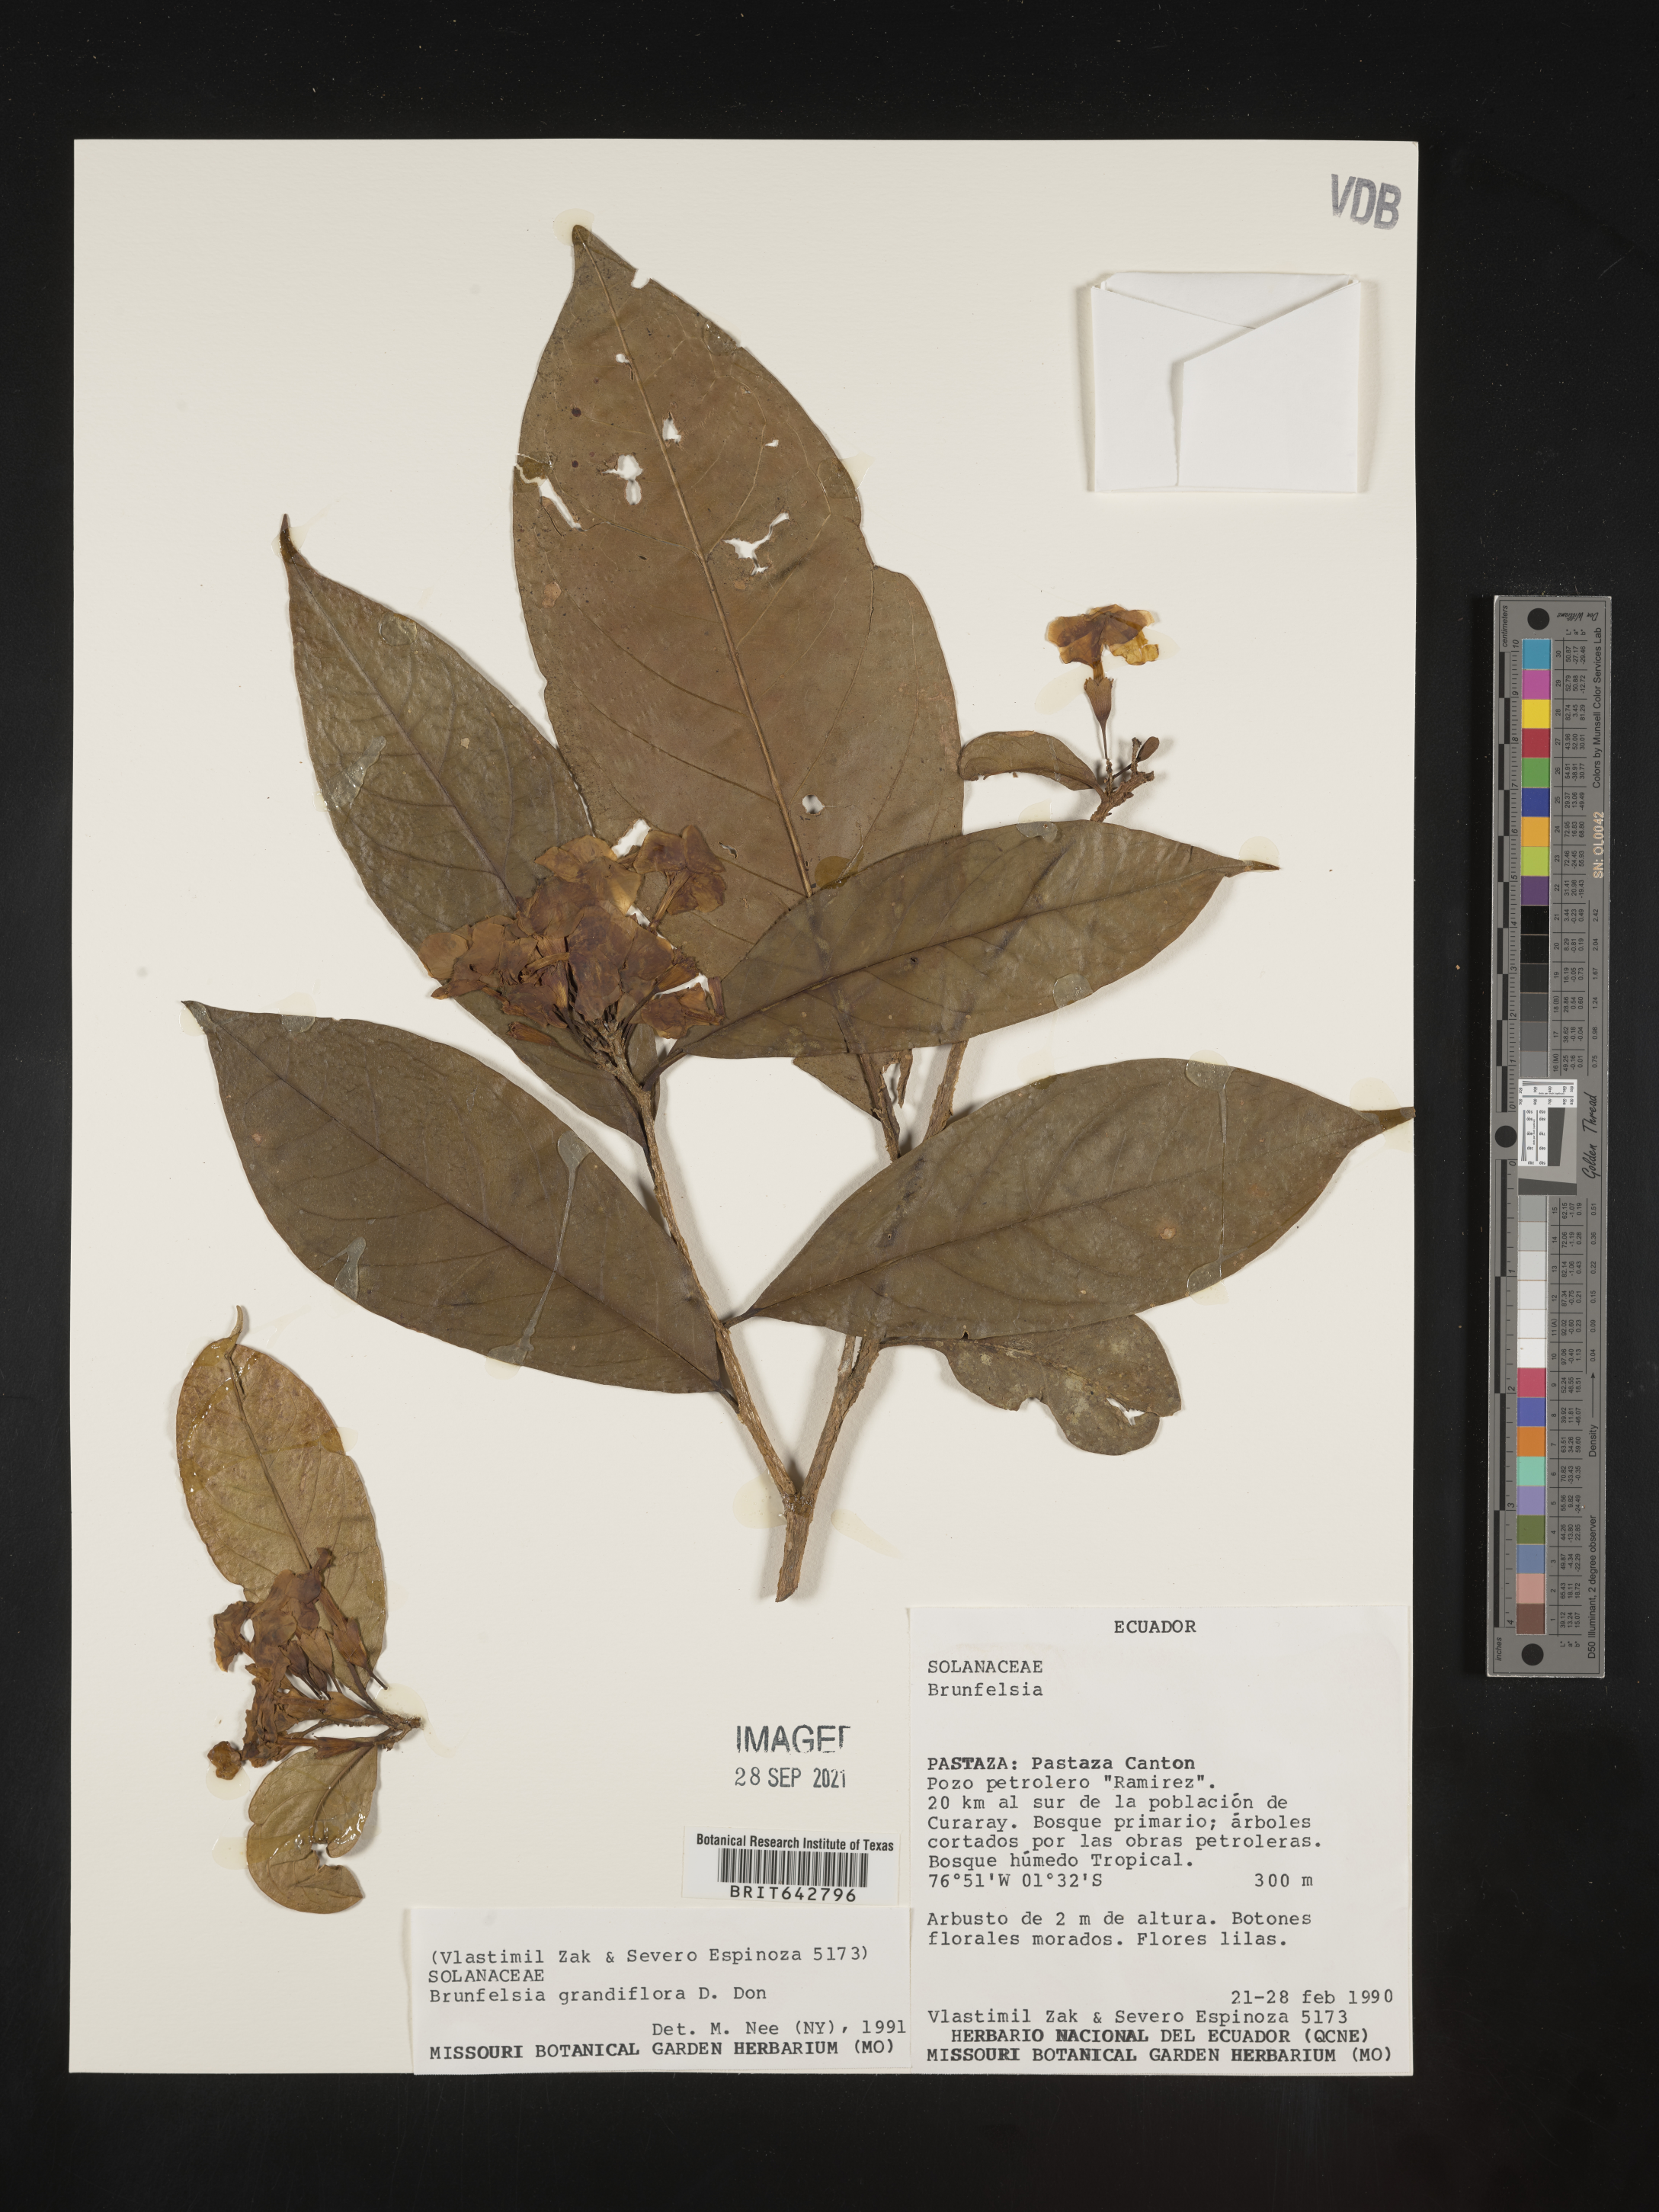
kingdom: Plantae
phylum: Tracheophyta
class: Magnoliopsida
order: Solanales
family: Solanaceae
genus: Brunfelsia
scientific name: Brunfelsia
